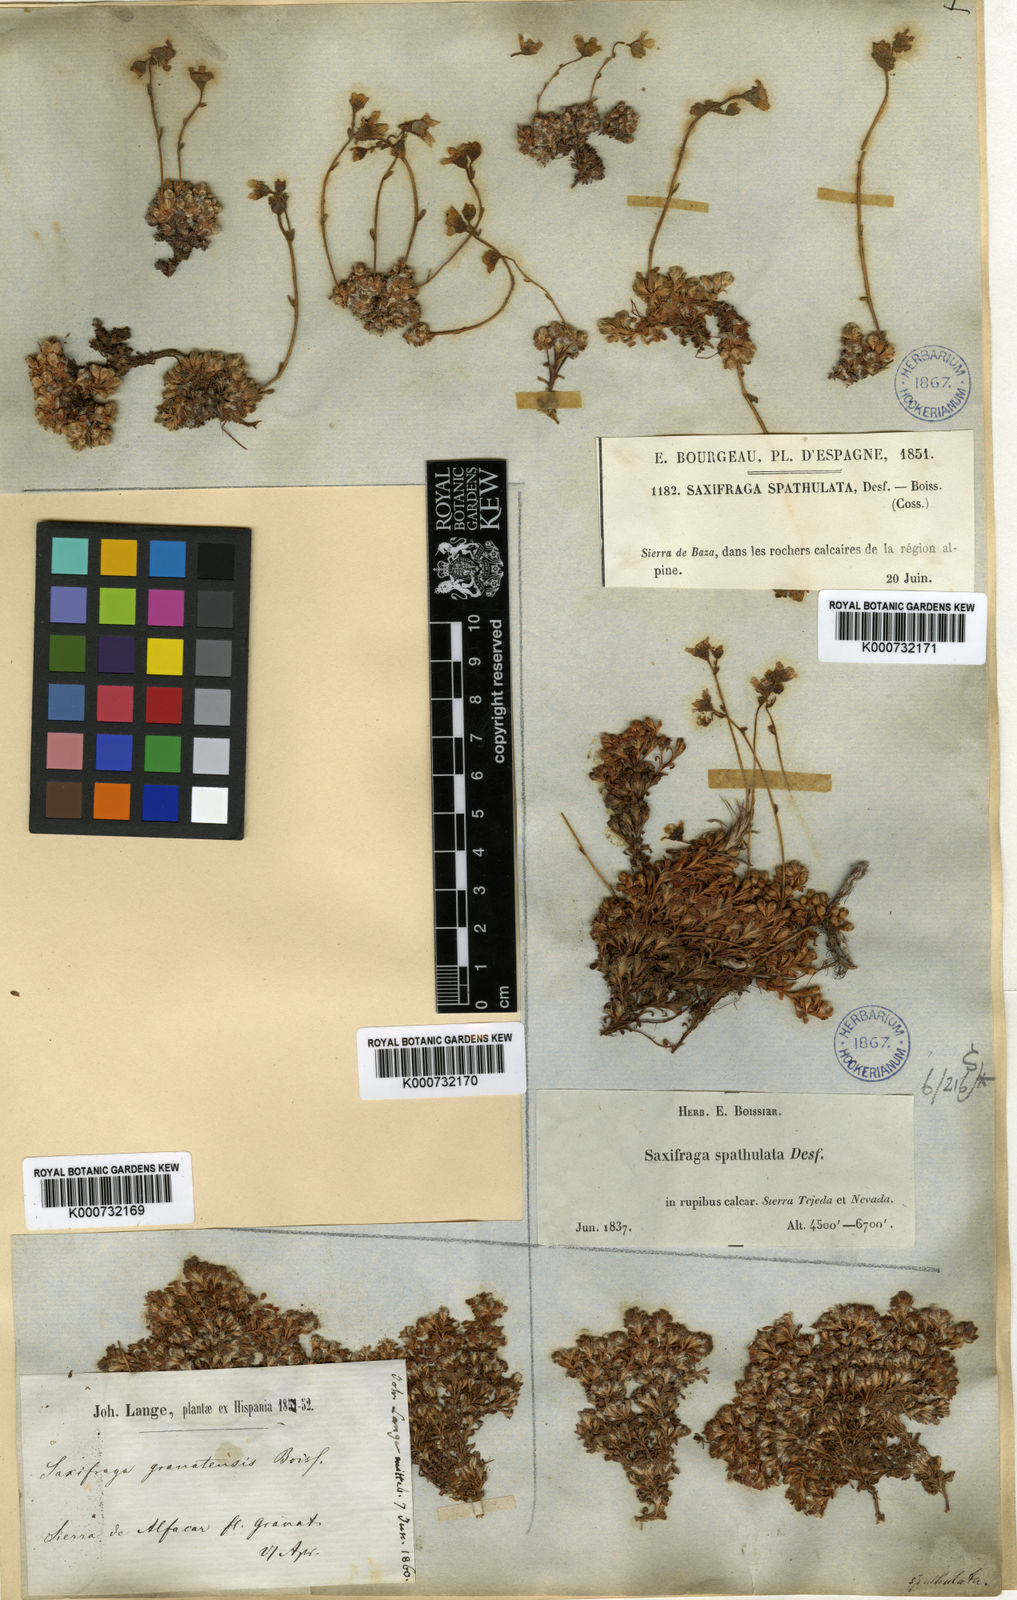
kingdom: Plantae
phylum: Tracheophyta
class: Magnoliopsida
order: Saxifragales
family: Saxifragaceae
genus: Saxifraga
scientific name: Saxifraga erioblasta
